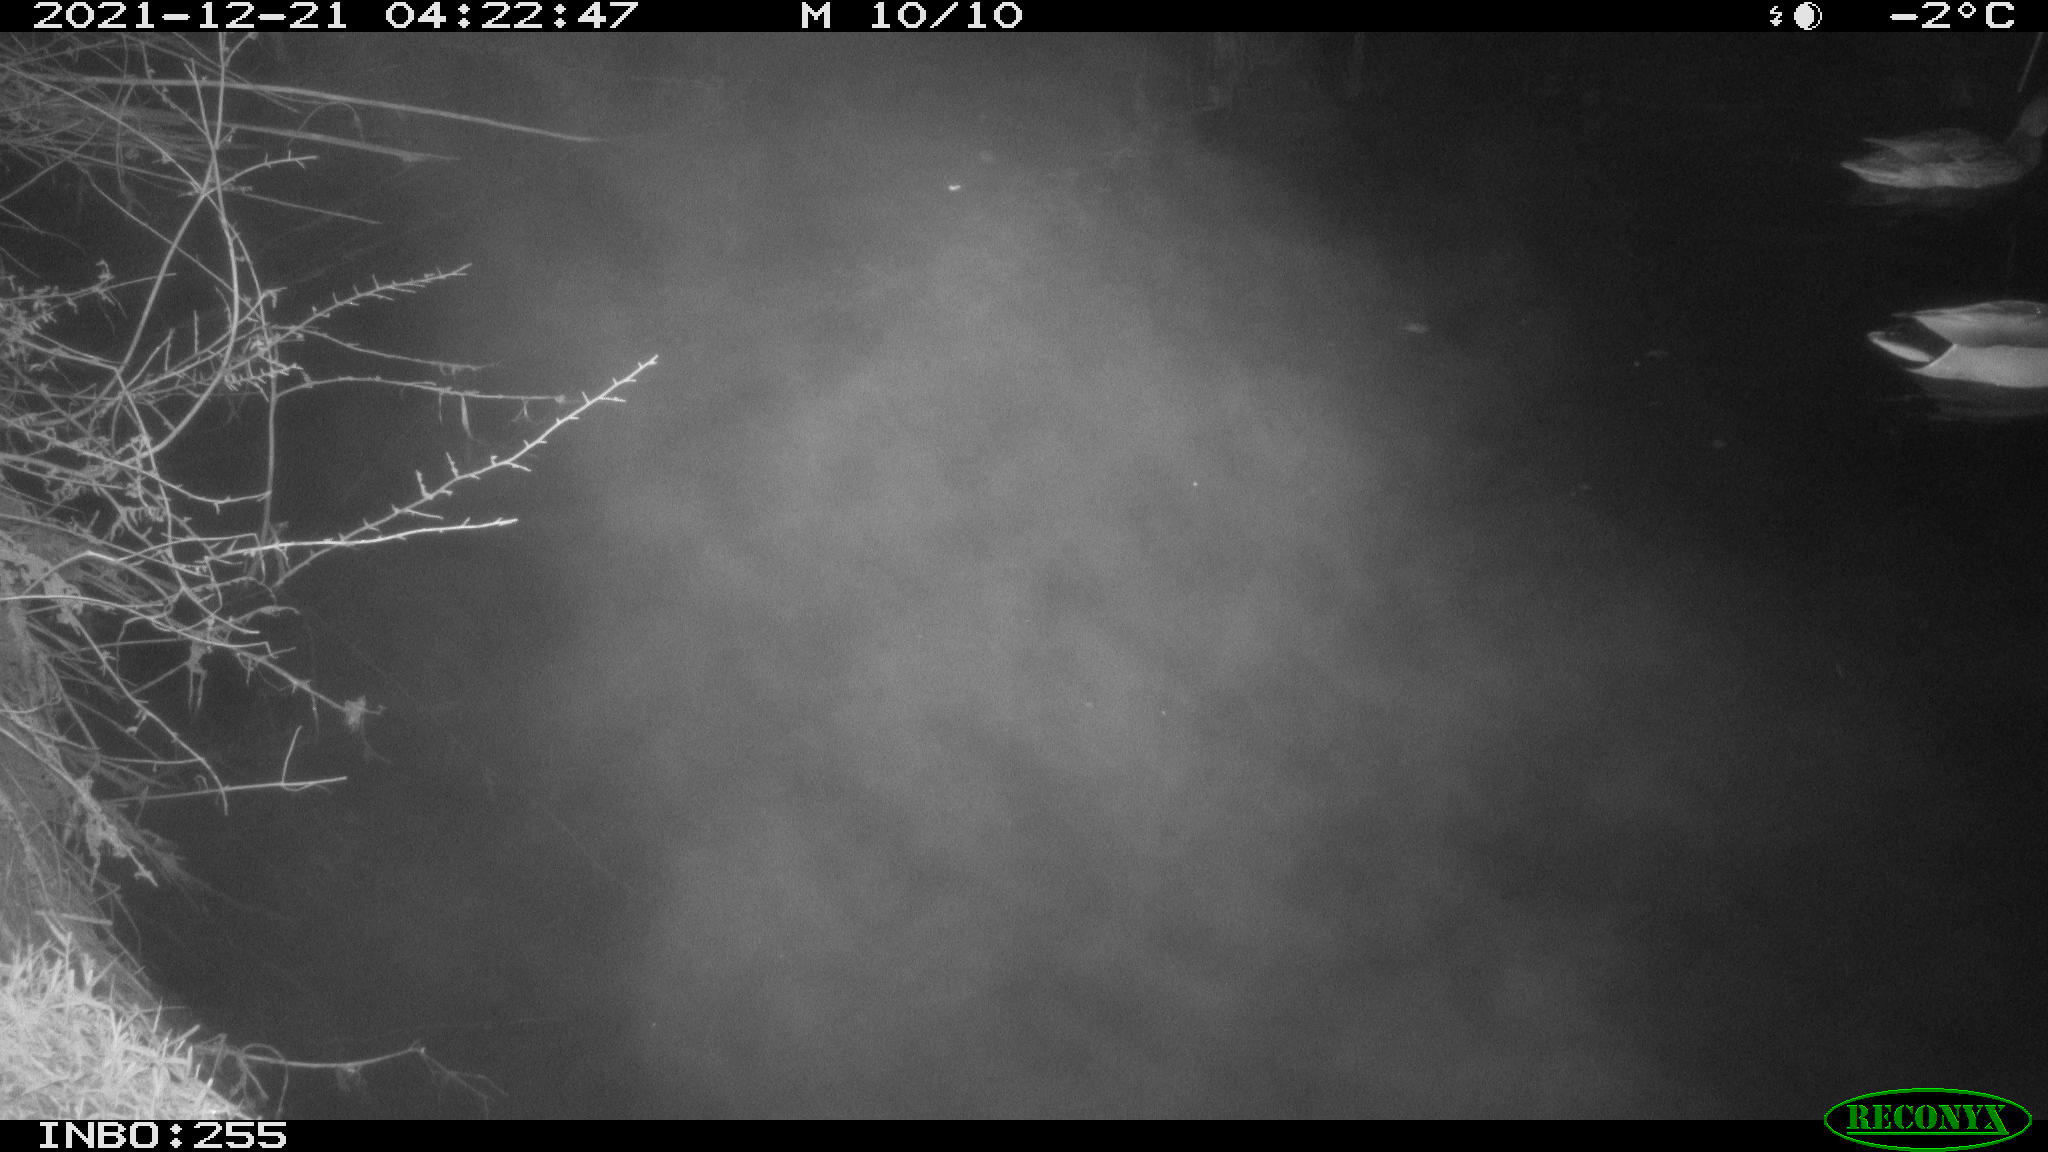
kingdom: Animalia
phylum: Chordata
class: Aves
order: Anseriformes
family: Anatidae
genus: Anas
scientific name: Anas
